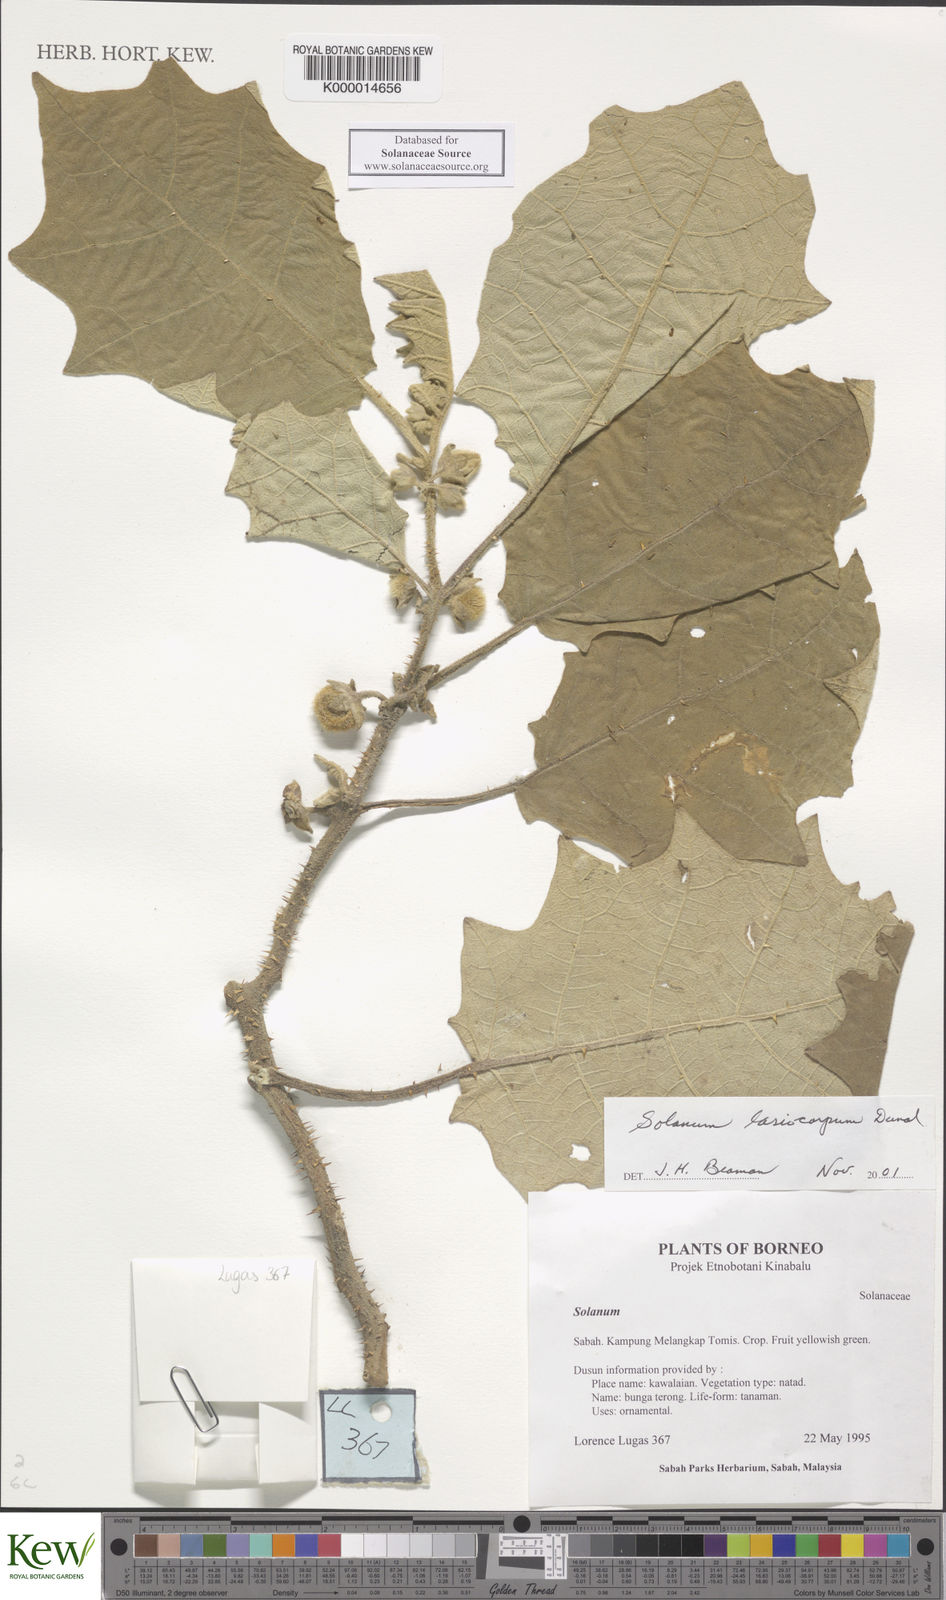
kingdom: Plantae
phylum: Tracheophyta
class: Magnoliopsida
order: Solanales
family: Solanaceae
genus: Solanum
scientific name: Solanum lasiocarpum
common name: Indian nightshade
